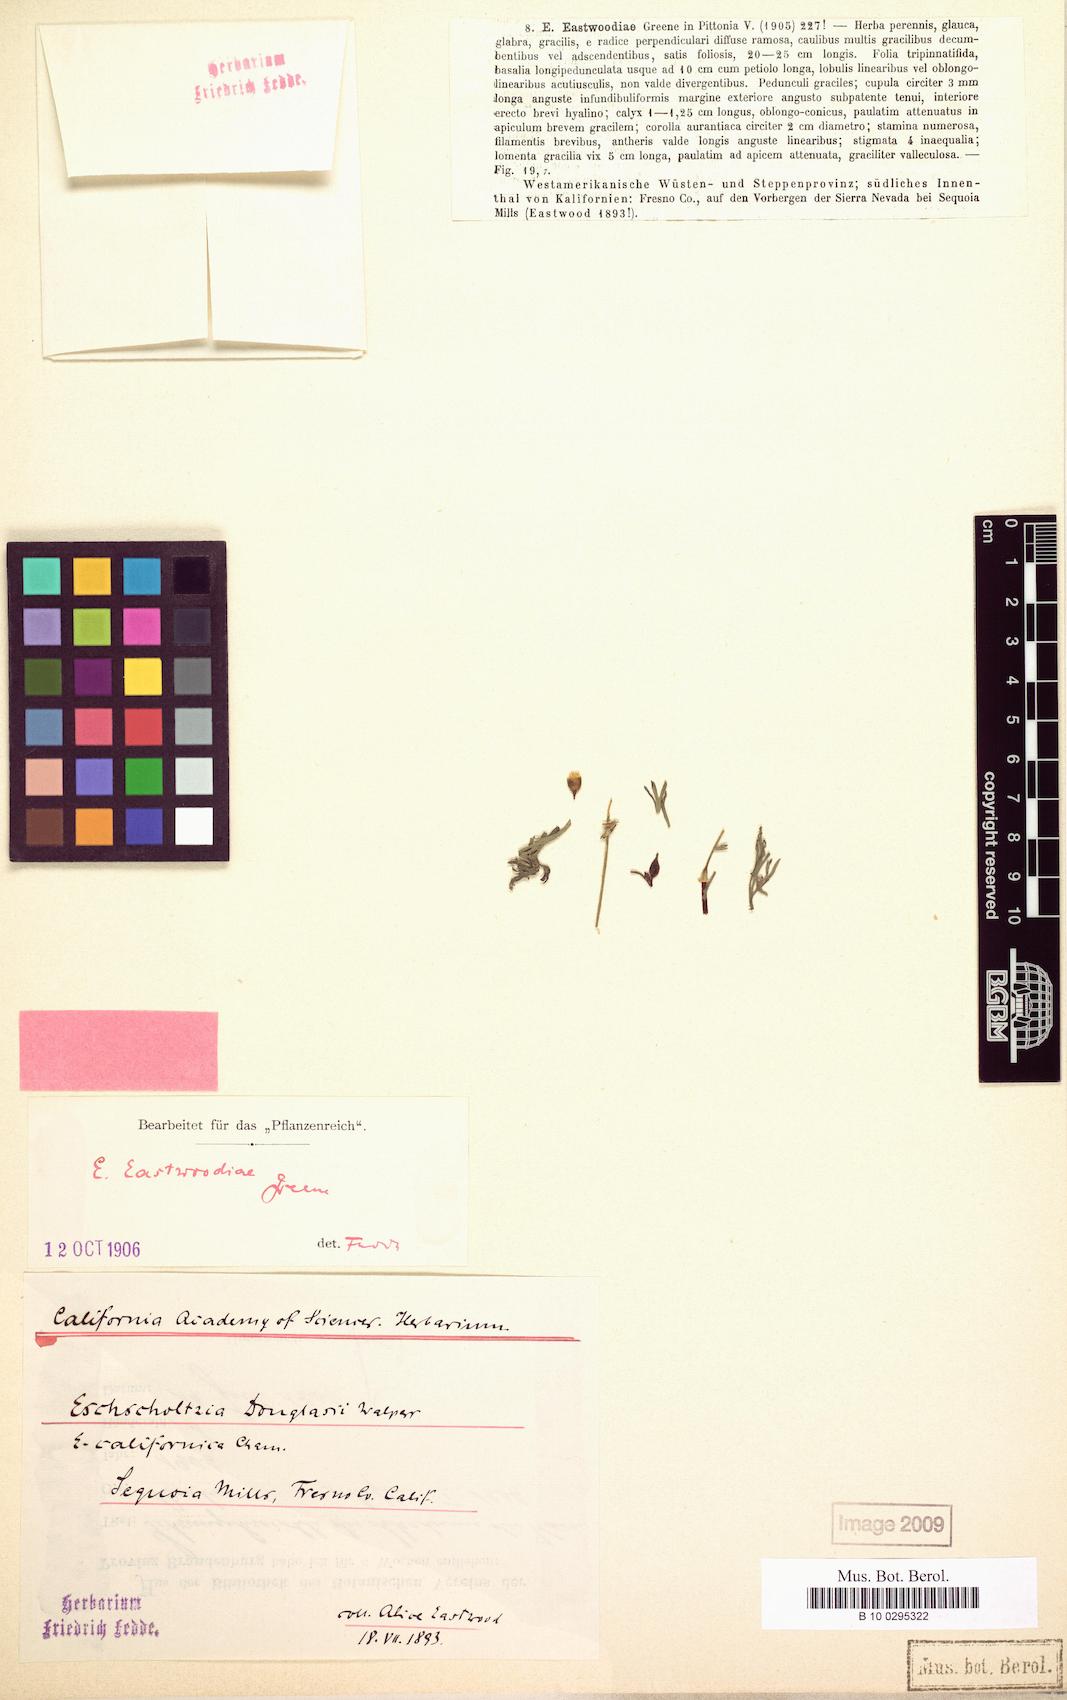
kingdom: Plantae
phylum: Tracheophyta
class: Magnoliopsida
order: Ranunculales
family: Papaveraceae
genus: Eschscholzia
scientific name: Eschscholzia californica
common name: California poppy
